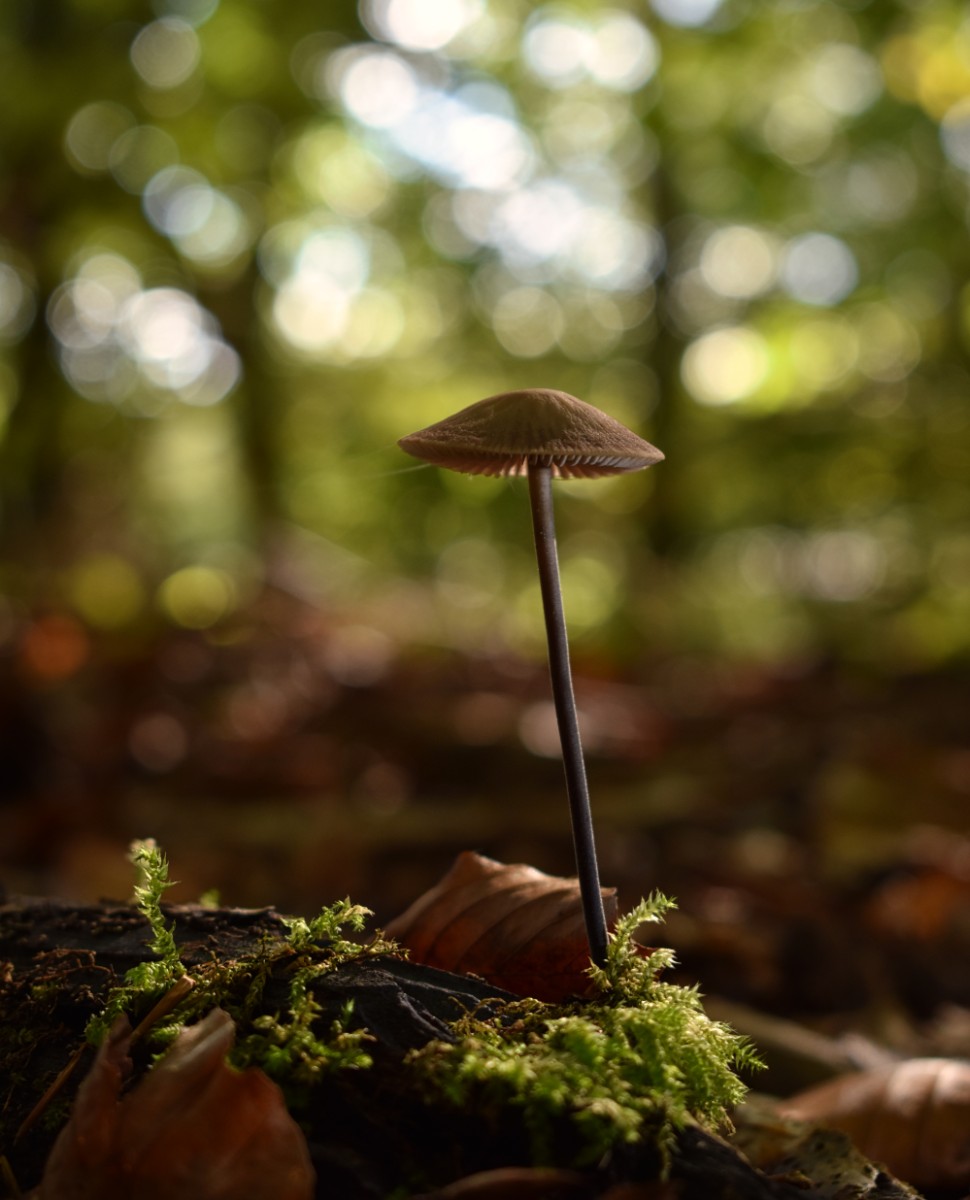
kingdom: Fungi
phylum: Basidiomycota
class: Agaricomycetes
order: Agaricales
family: Omphalotaceae
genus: Mycetinis
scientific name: Mycetinis alliaceus
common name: stor løghat
